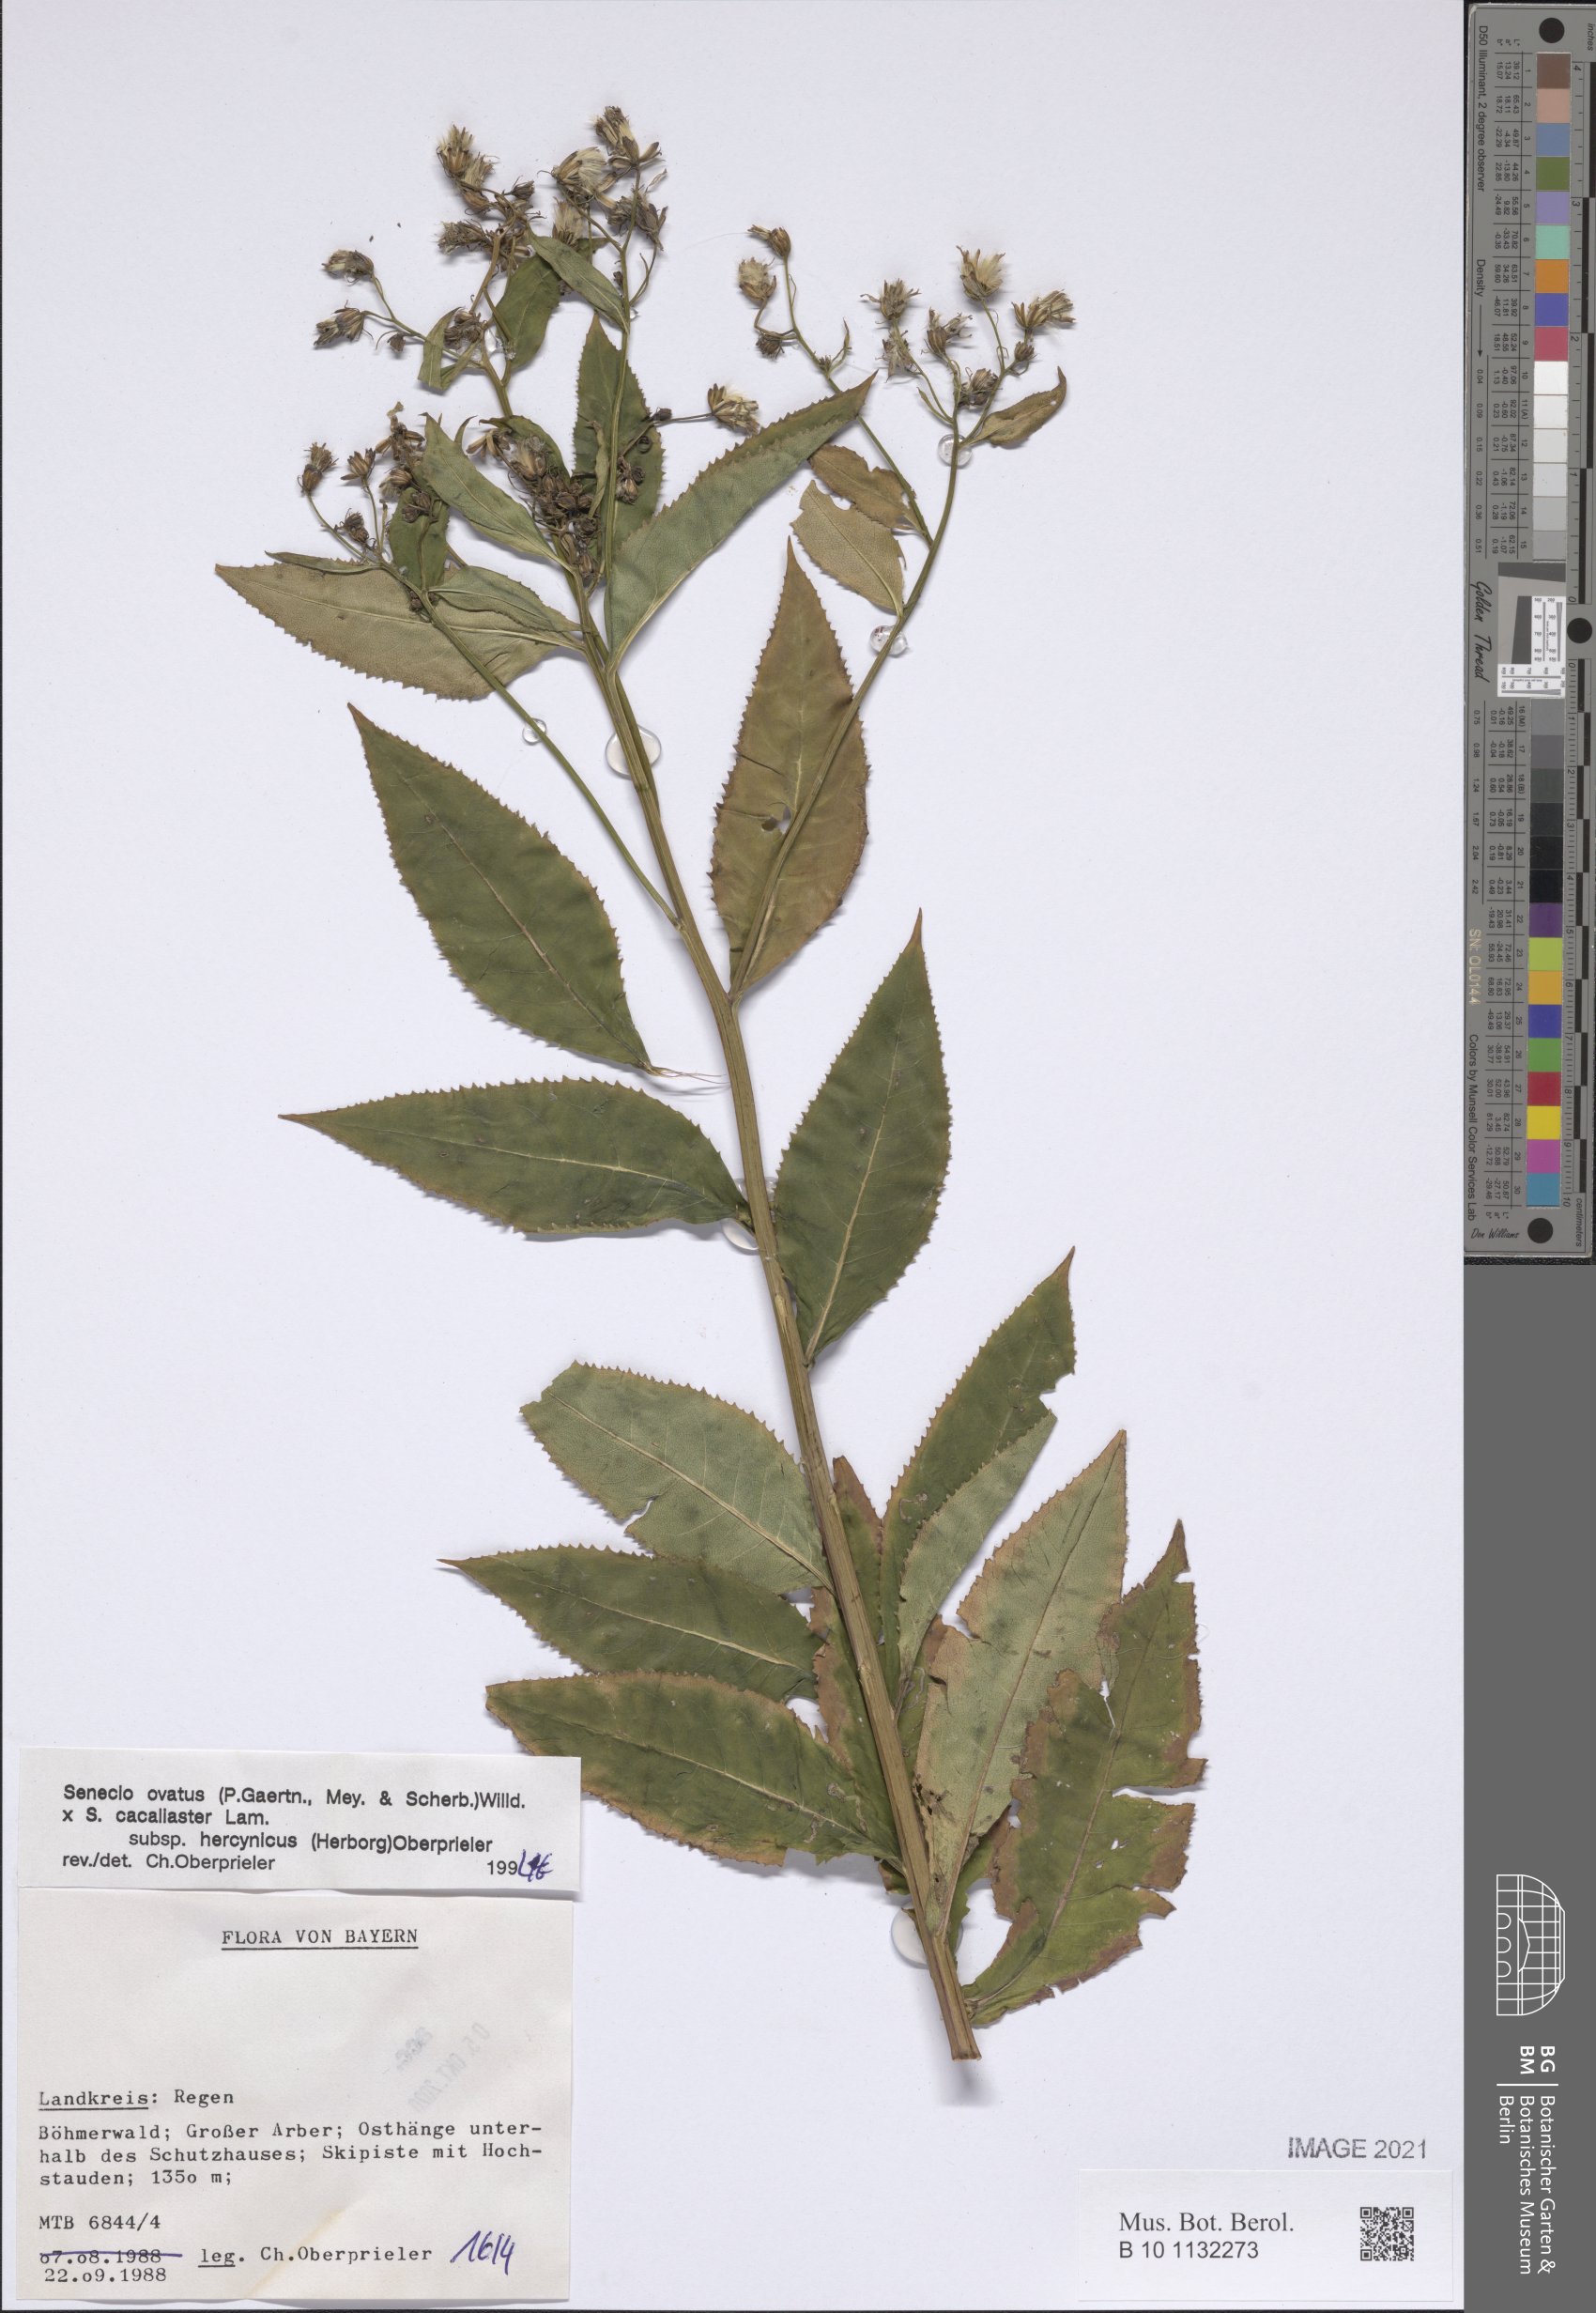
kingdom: Plantae
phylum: Tracheophyta
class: Magnoliopsida
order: Asterales
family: Asteraceae
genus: Senecio
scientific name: Senecio ovatus
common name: Wood ragwort
